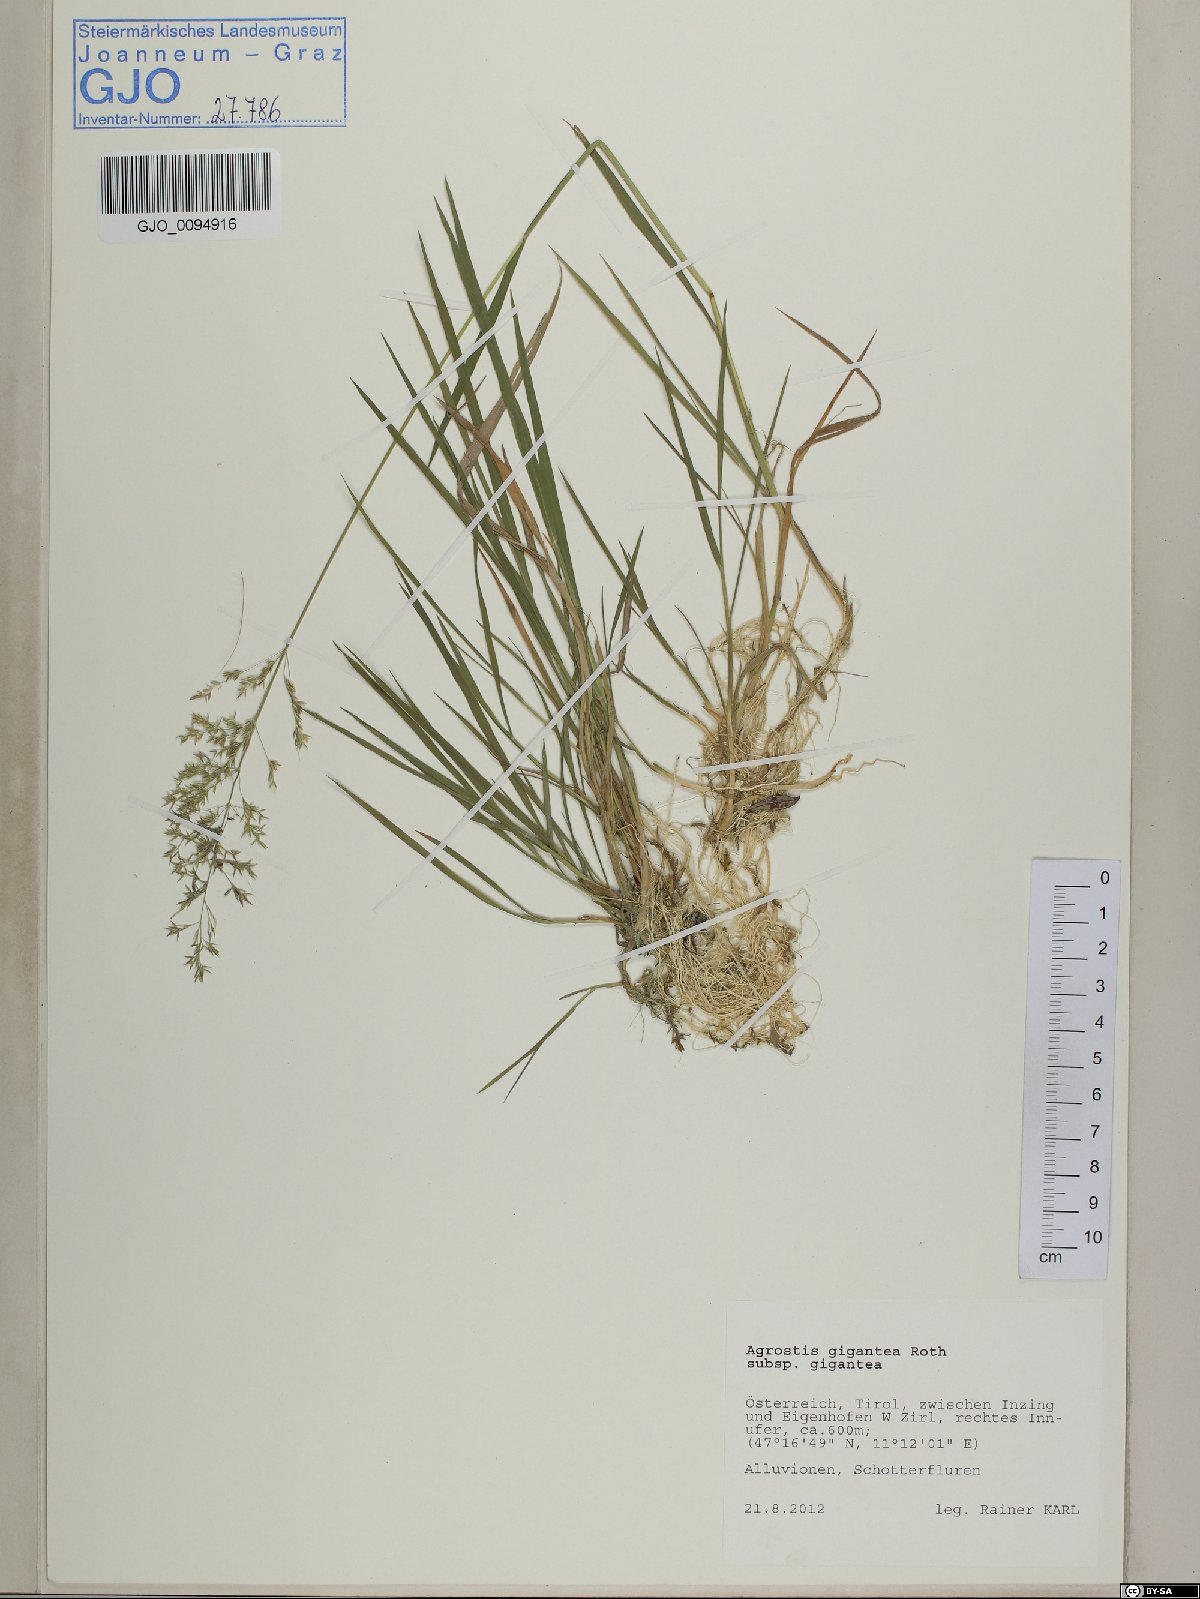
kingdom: Plantae
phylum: Tracheophyta
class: Liliopsida
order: Poales
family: Poaceae
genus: Agrostis
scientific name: Agrostis gigantea
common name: Black bent
